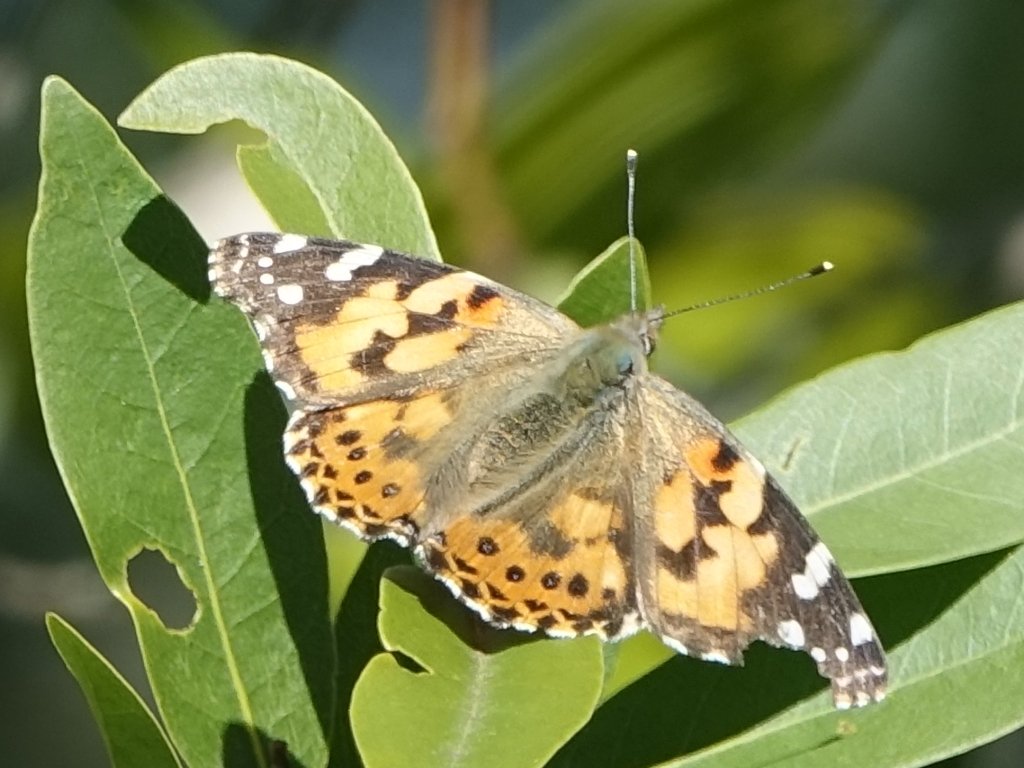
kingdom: Animalia
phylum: Arthropoda
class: Insecta
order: Lepidoptera
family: Nymphalidae
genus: Vanessa
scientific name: Vanessa cardui
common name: Painted Lady
